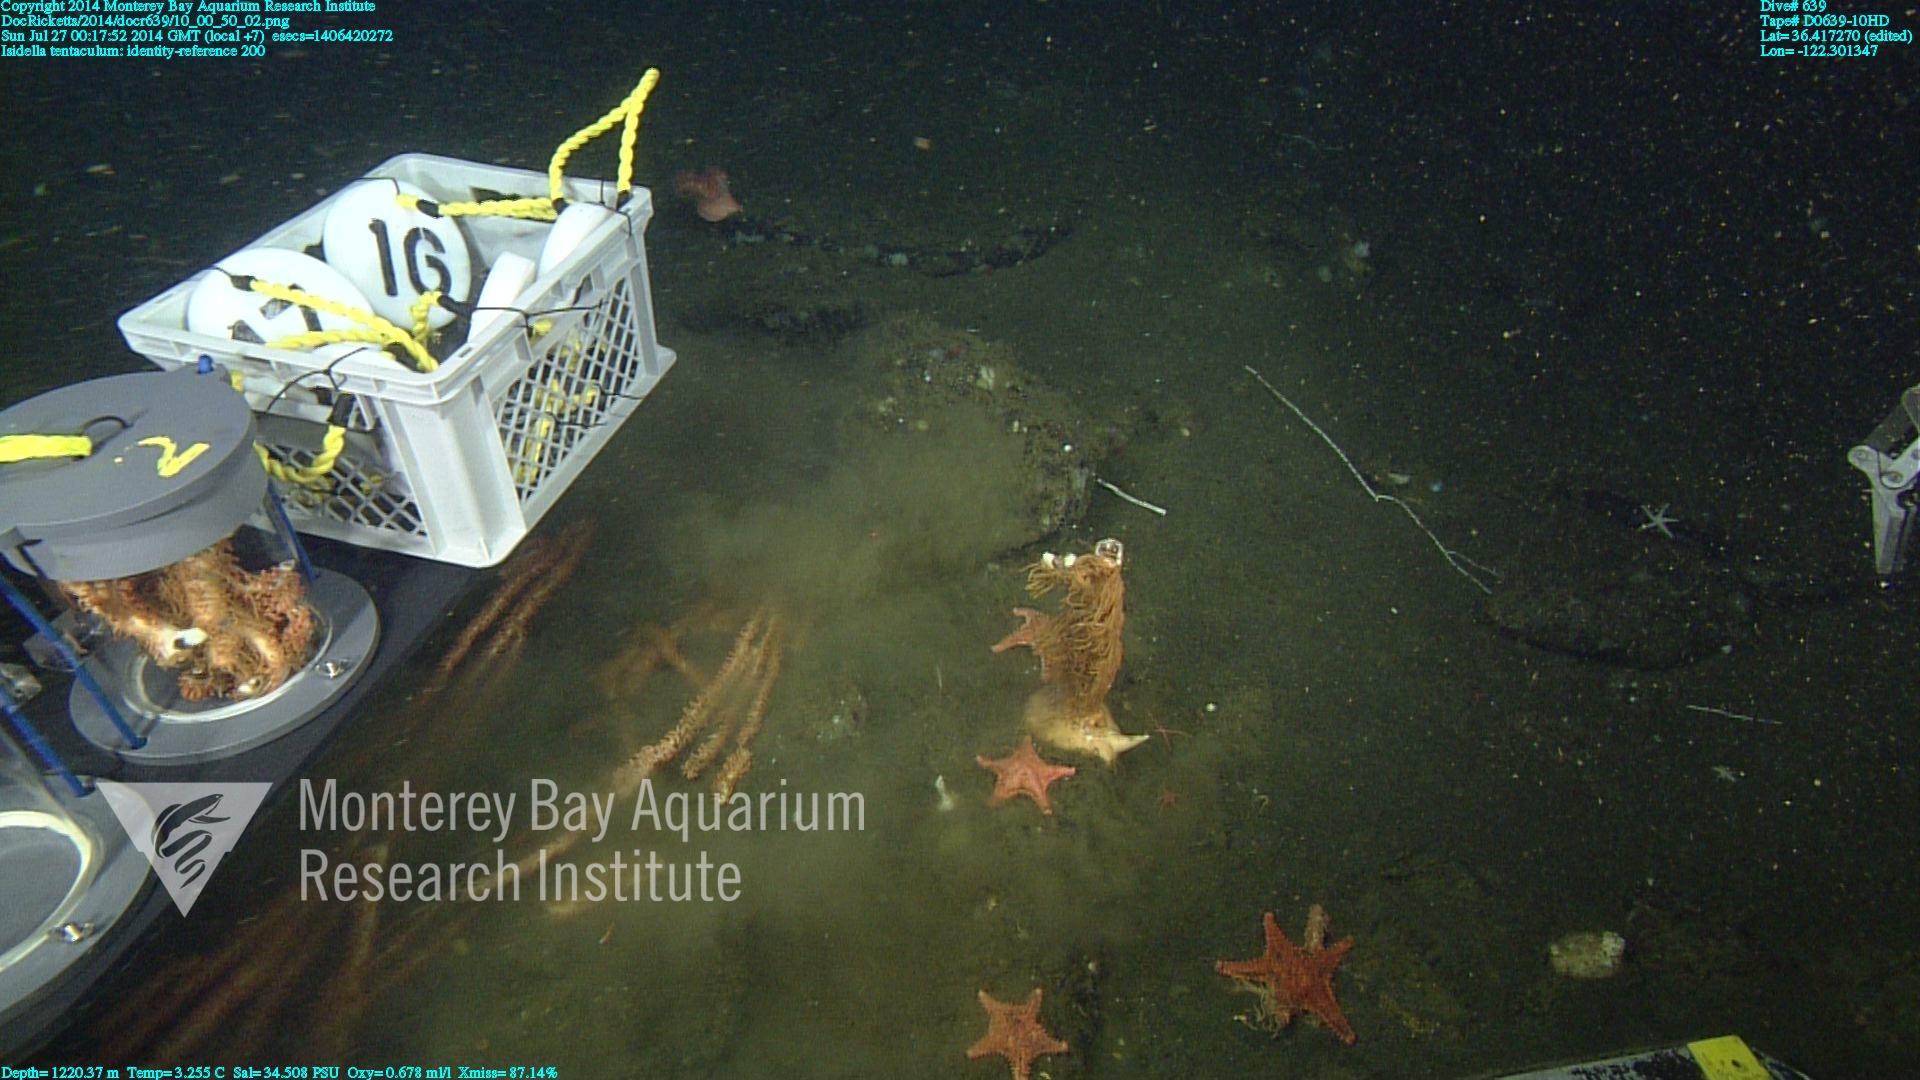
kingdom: Animalia
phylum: Cnidaria
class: Anthozoa
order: Scleralcyonacea
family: Keratoisididae
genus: Isidella
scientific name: Isidella tentaculum
